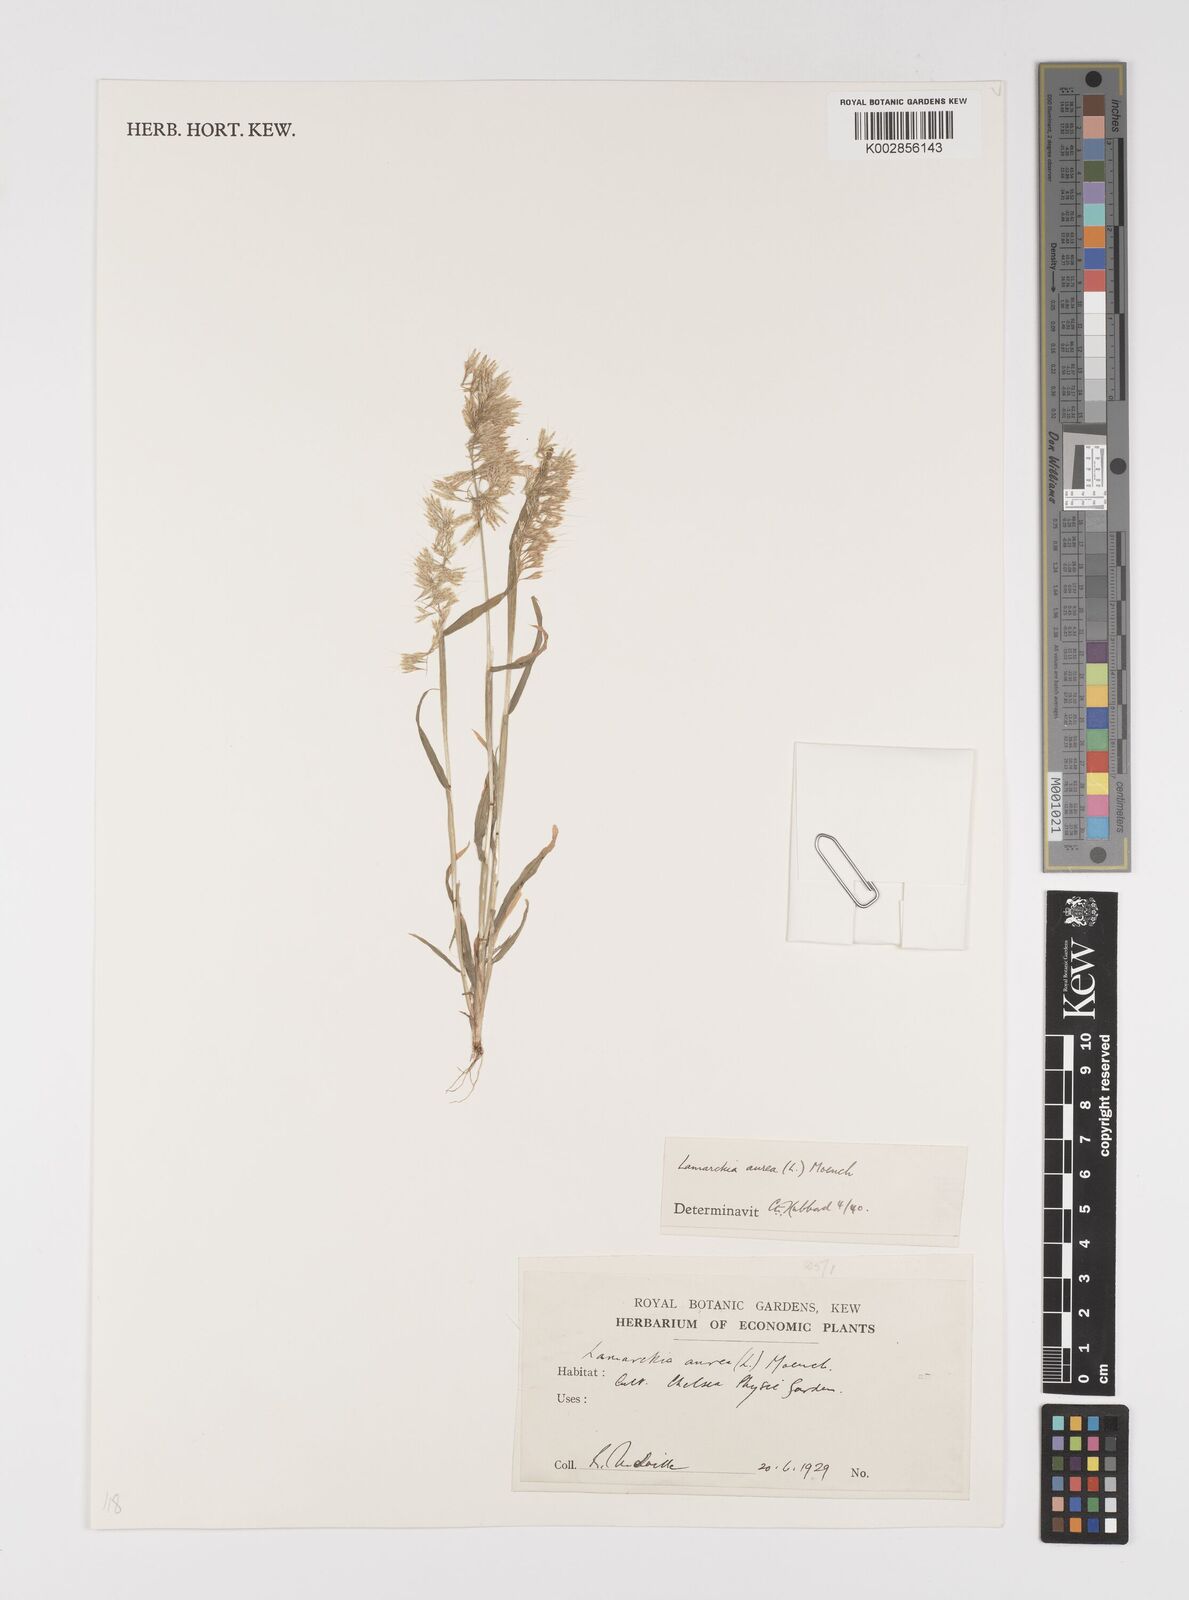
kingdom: Plantae
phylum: Tracheophyta
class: Liliopsida
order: Poales
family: Poaceae
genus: Lamarckia
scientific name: Lamarckia aurea
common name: Golden dog's-tail
